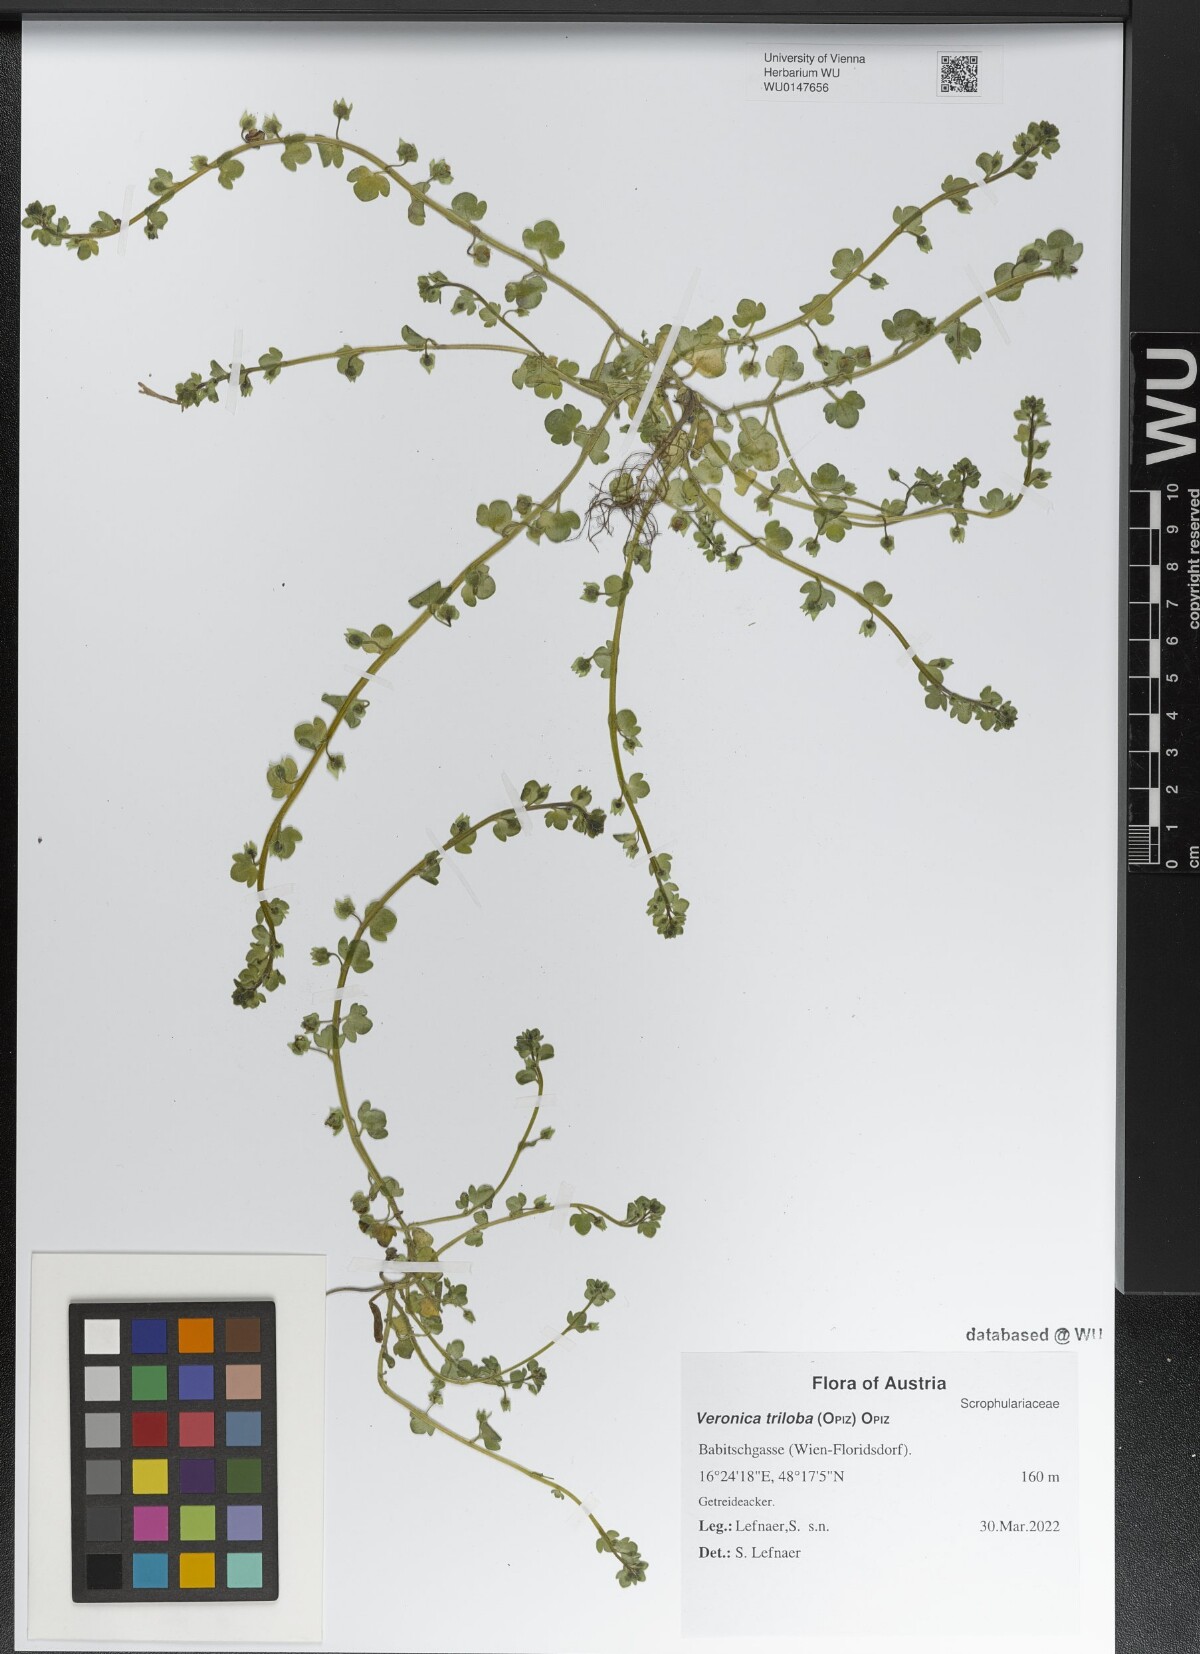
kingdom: Plantae
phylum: Tracheophyta
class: Magnoliopsida
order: Lamiales
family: Plantaginaceae
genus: Veronica
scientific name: Veronica triloba
